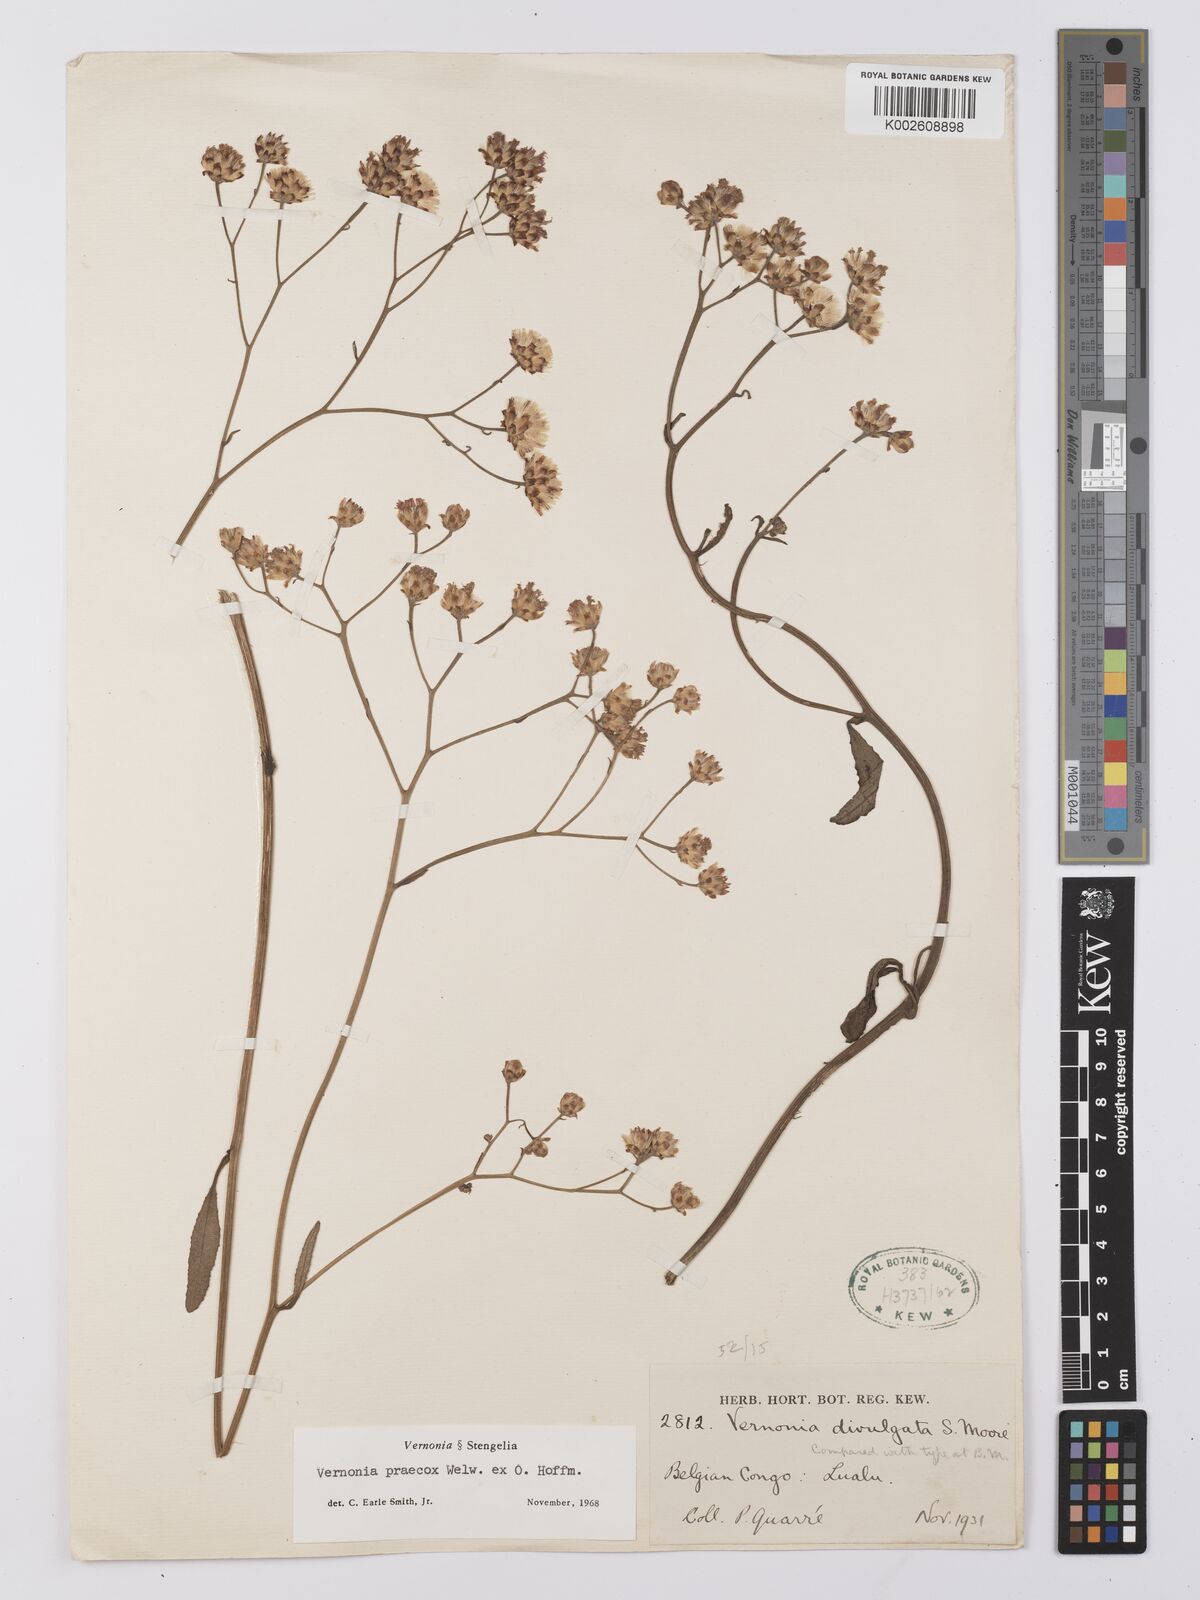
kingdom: Plantae
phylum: Tracheophyta
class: Magnoliopsida
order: Asterales
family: Asteraceae
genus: Vernonia
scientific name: Vernonia divulgata
